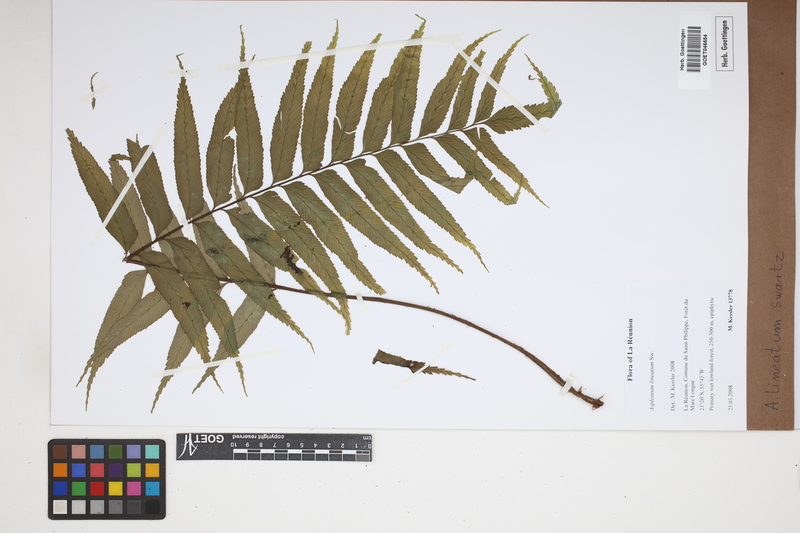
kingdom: Plantae
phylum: Tracheophyta
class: Polypodiopsida
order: Polypodiales
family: Aspleniaceae
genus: Asplenium
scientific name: Asplenium daucifolium
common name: Mauritius spleenwort
